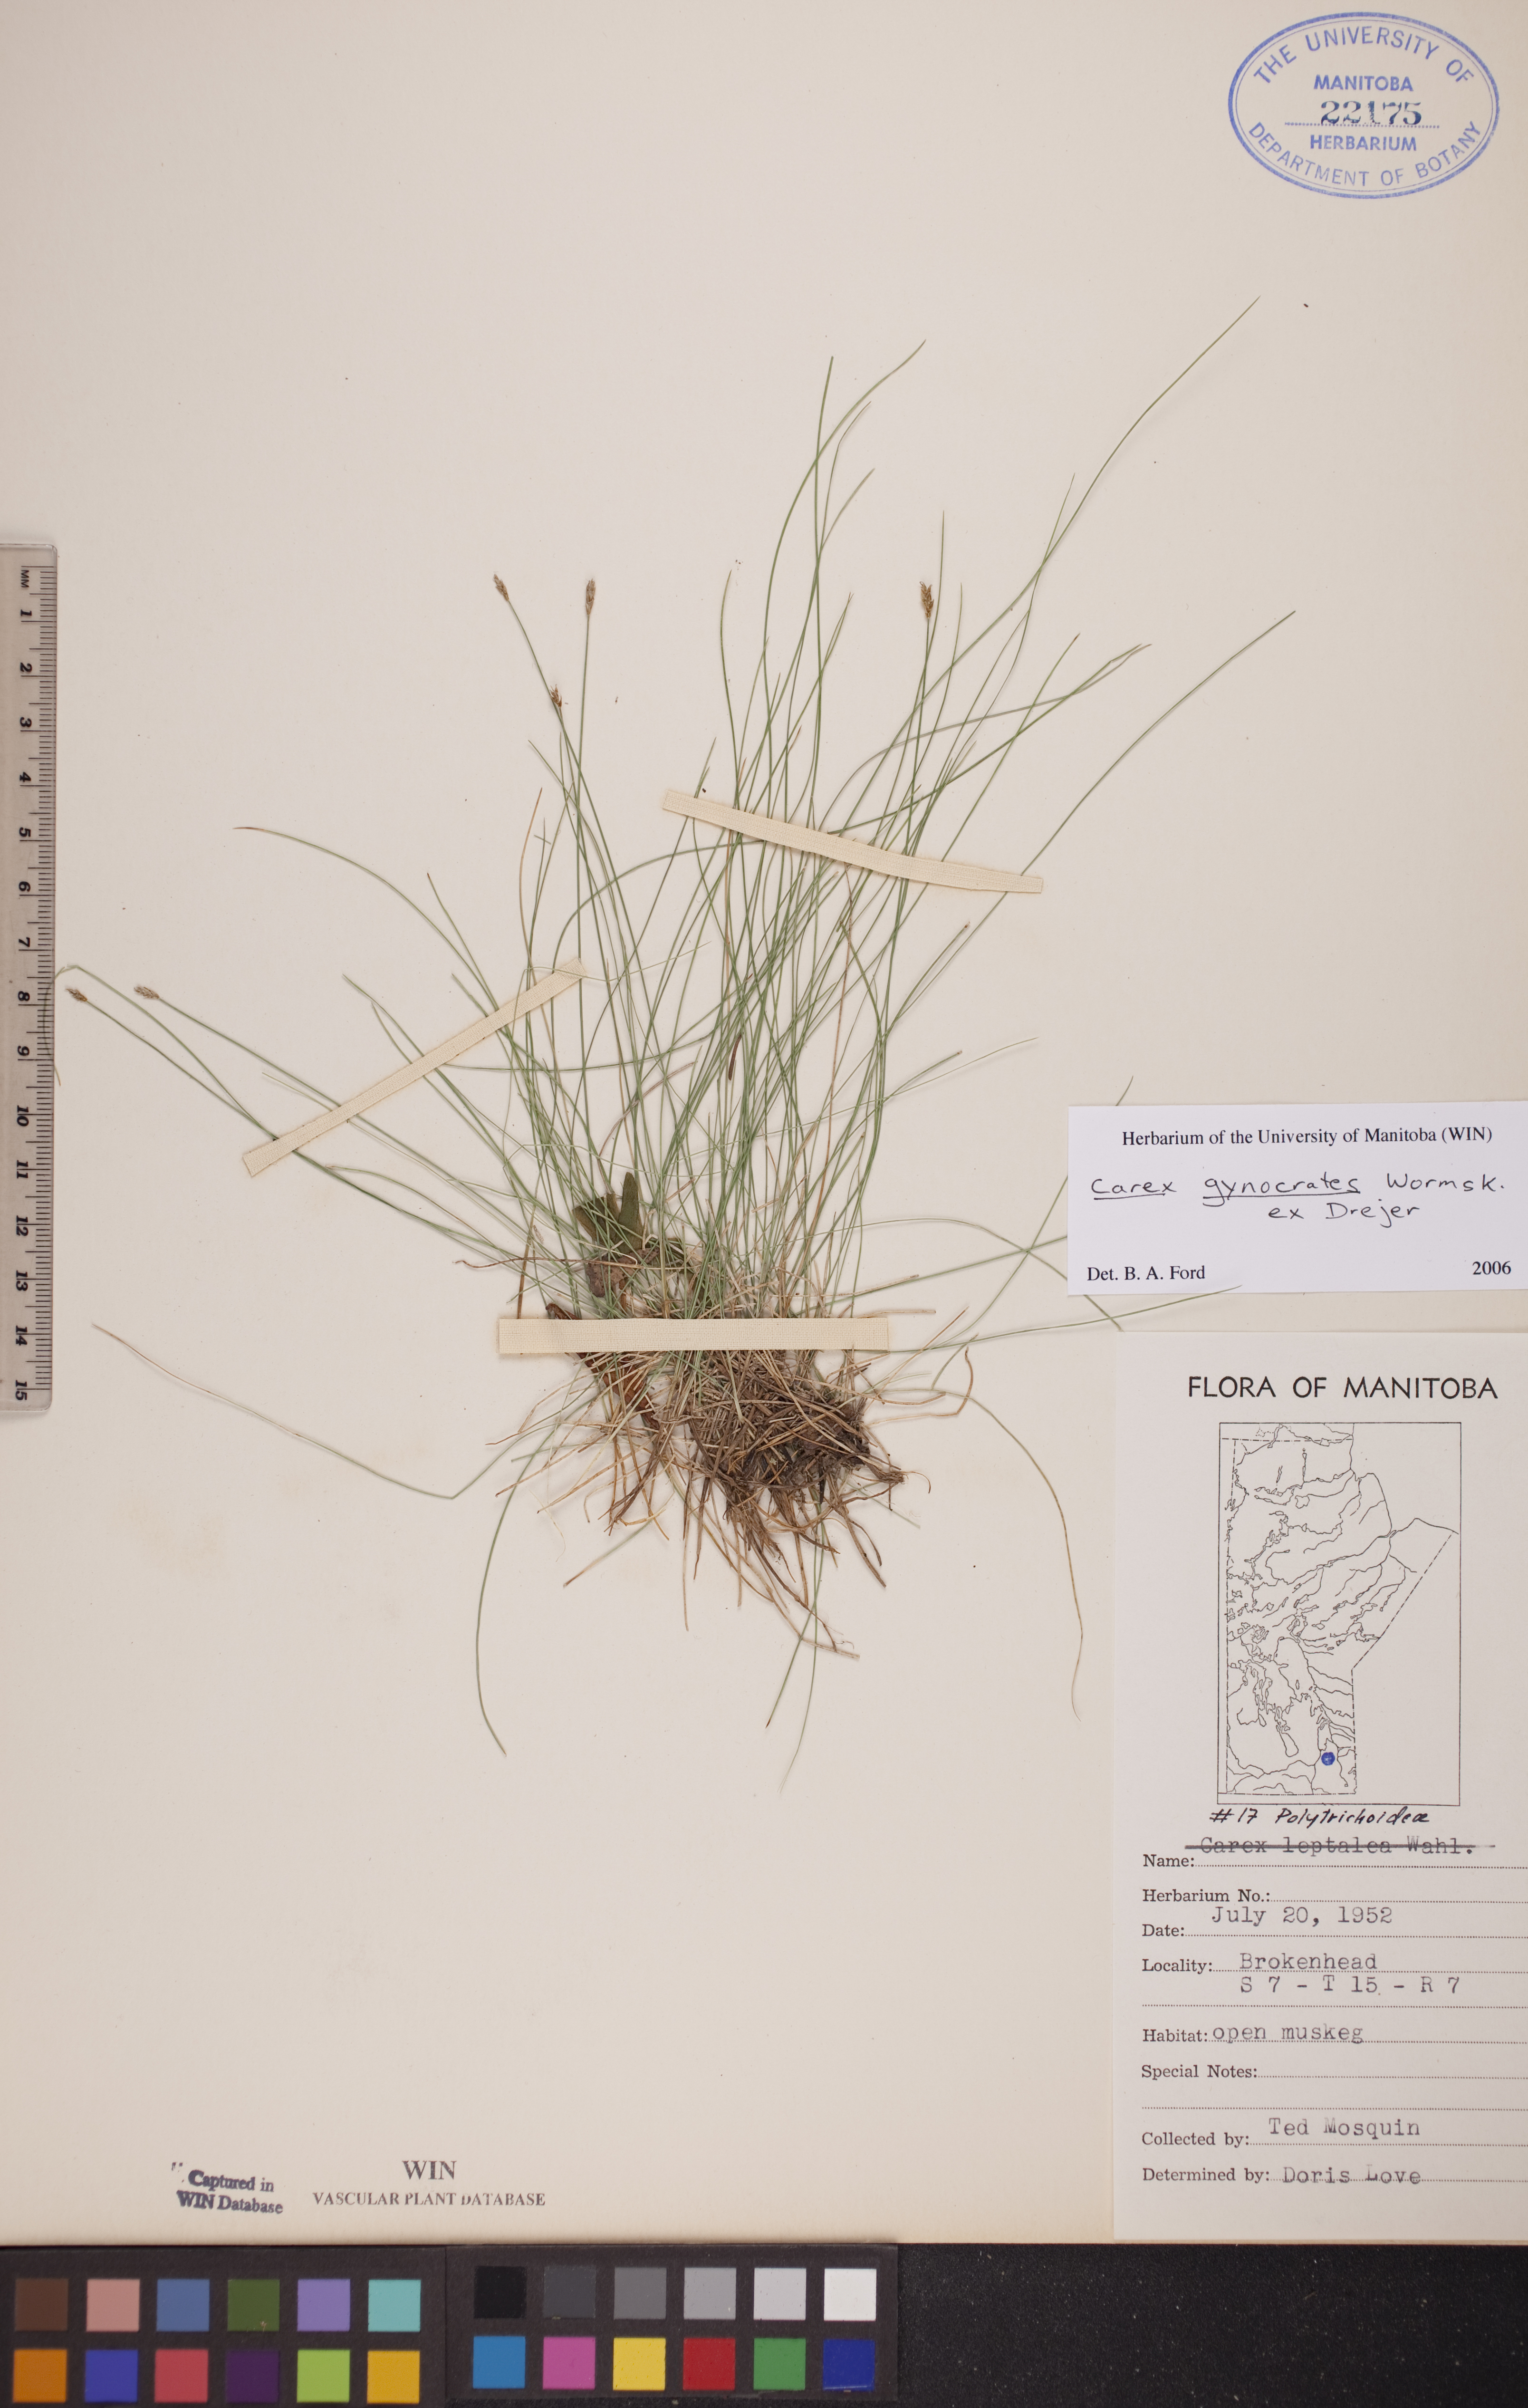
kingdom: Plantae
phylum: Tracheophyta
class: Liliopsida
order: Poales
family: Cyperaceae
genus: Carex
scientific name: Carex nardina
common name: Nard sedge
